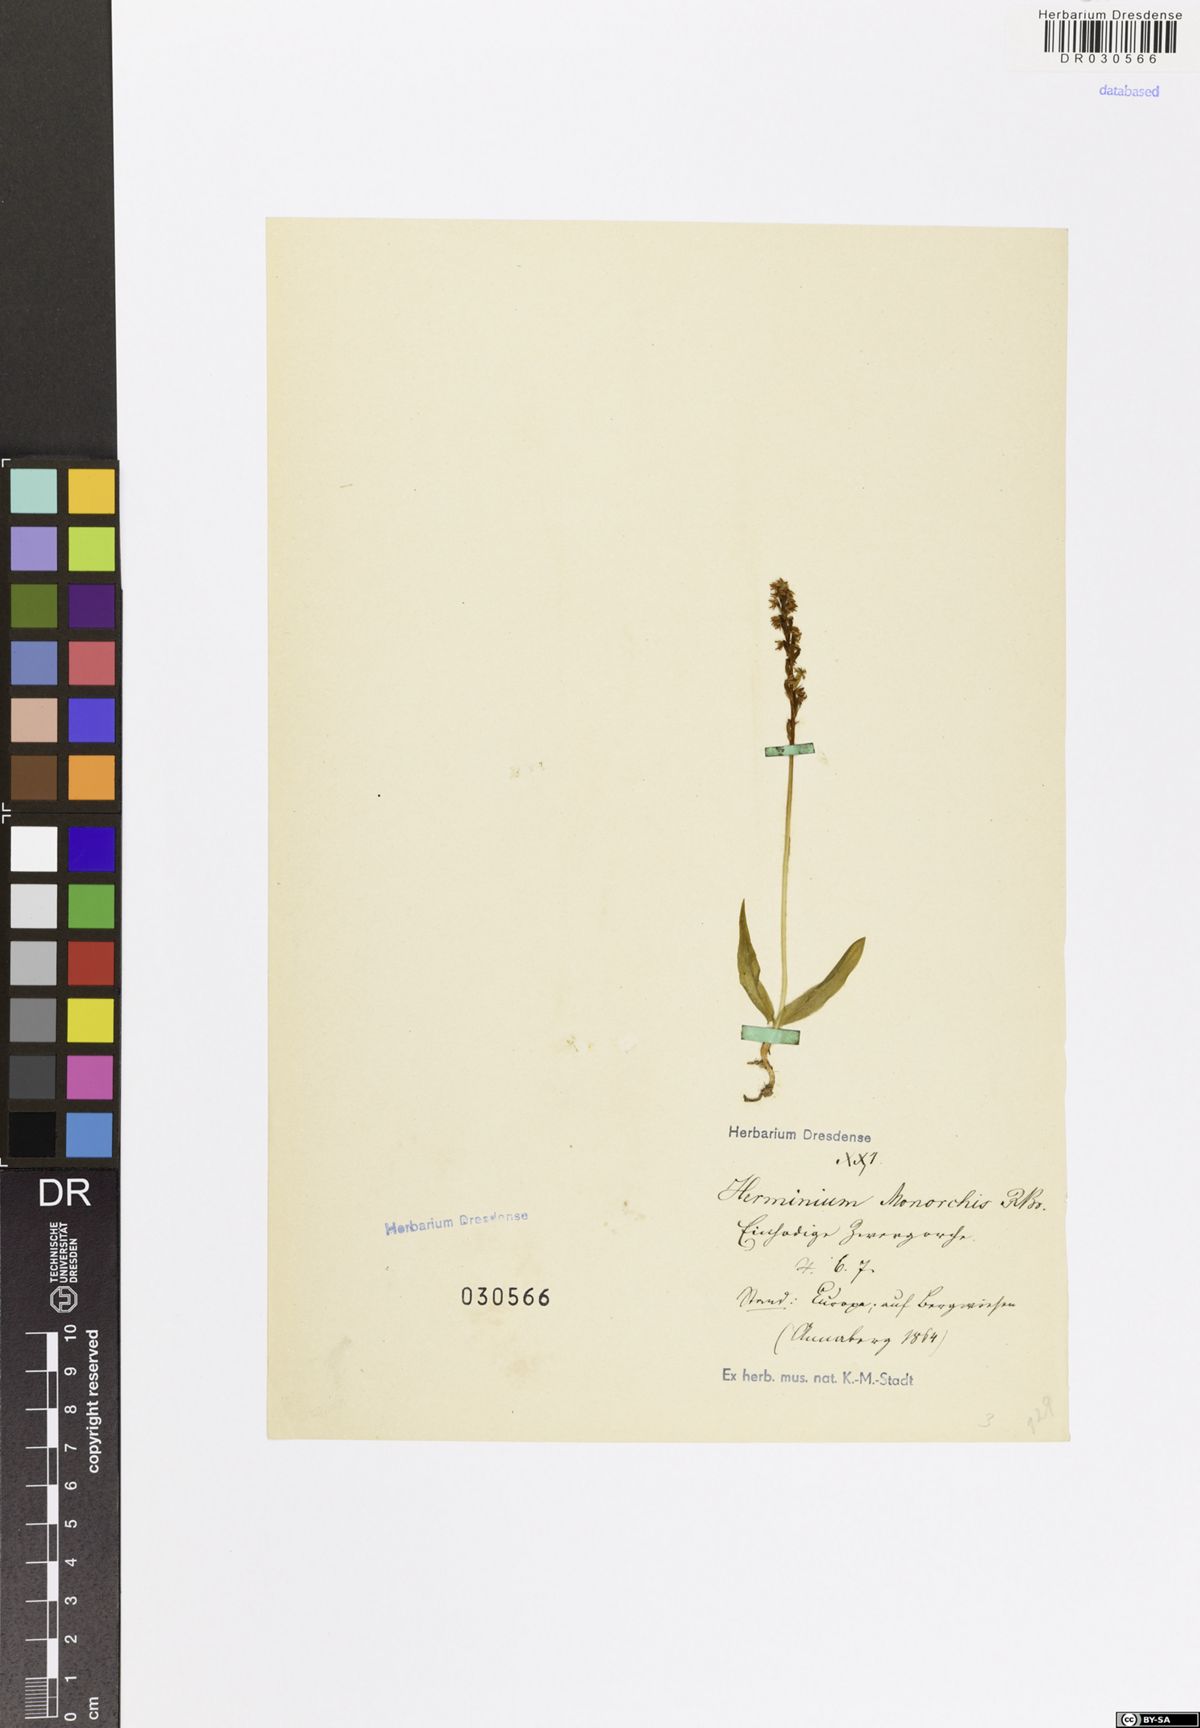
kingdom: Plantae
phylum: Tracheophyta
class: Liliopsida
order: Asparagales
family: Orchidaceae
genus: Herminium
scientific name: Herminium monorchis
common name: Musk orchid
